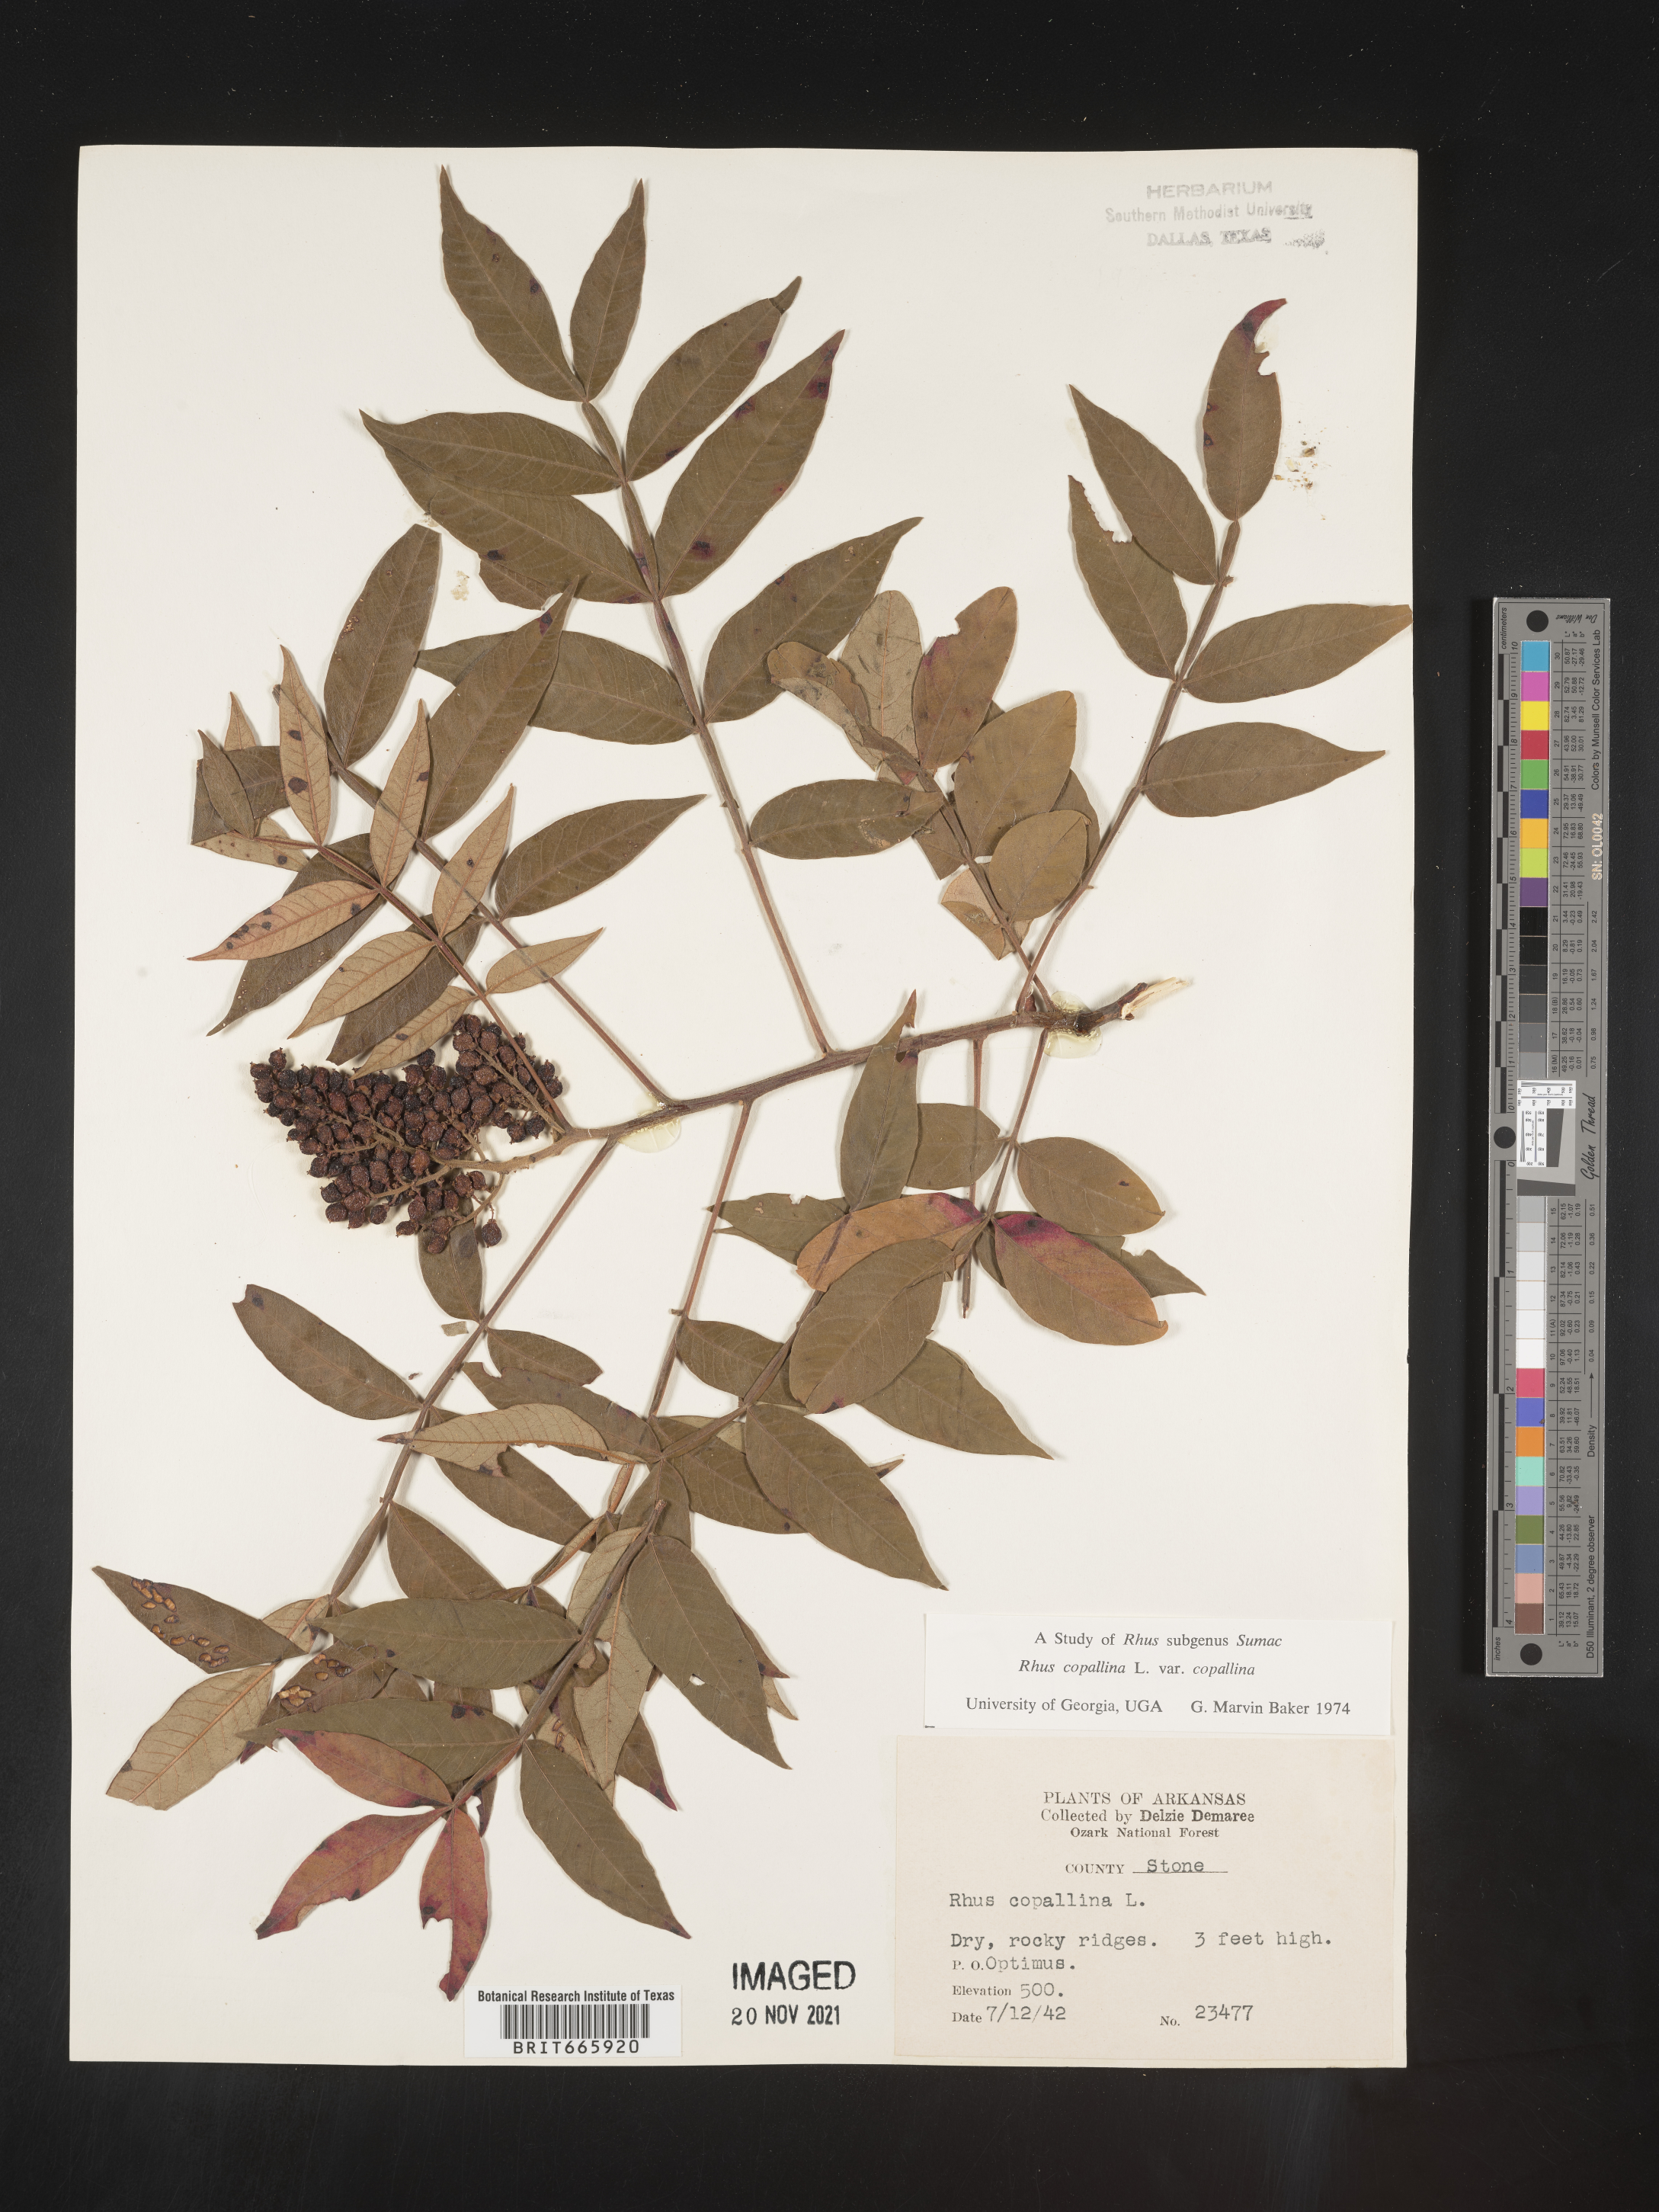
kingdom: Plantae
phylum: Tracheophyta
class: Magnoliopsida
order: Sapindales
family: Anacardiaceae
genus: Rhus
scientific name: Rhus copallina
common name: Shining sumac
